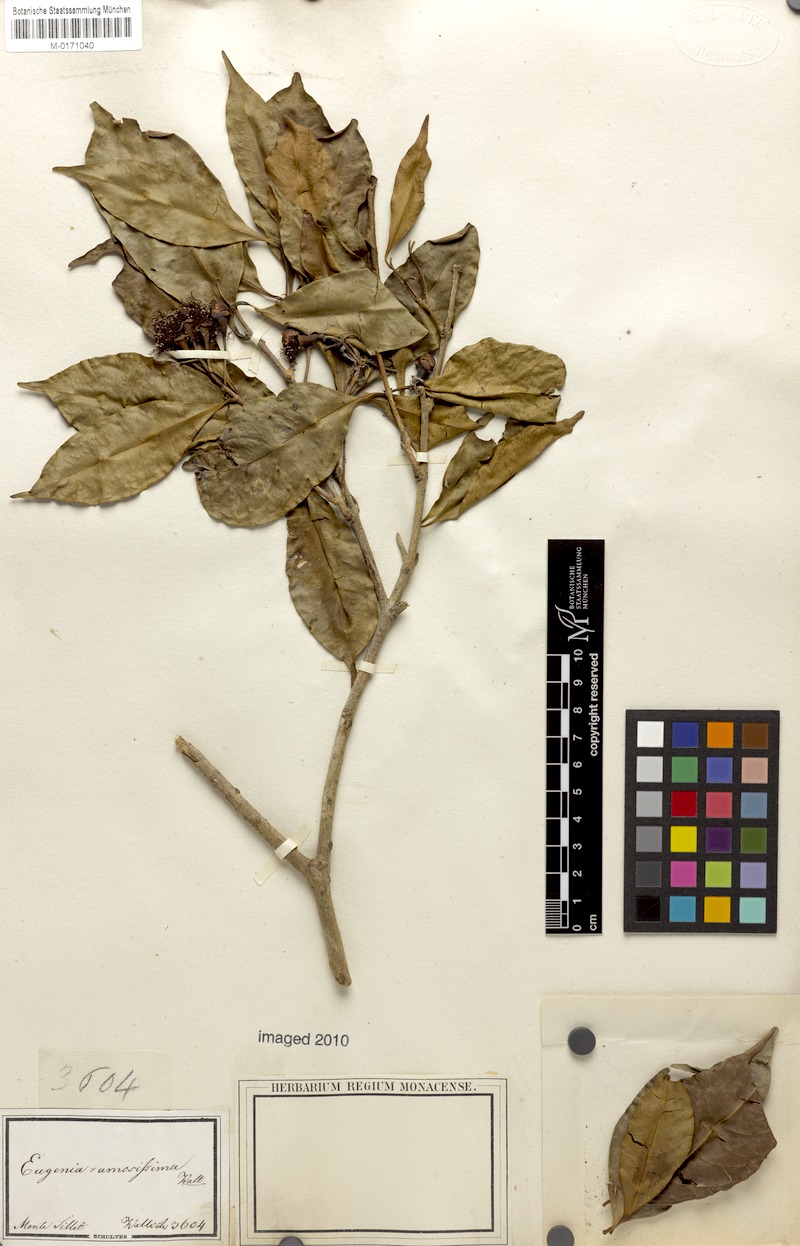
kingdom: Plantae
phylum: Tracheophyta
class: Magnoliopsida
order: Myrtales
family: Myrtaceae
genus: Syzygium
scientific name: Syzygium ramosissimum
